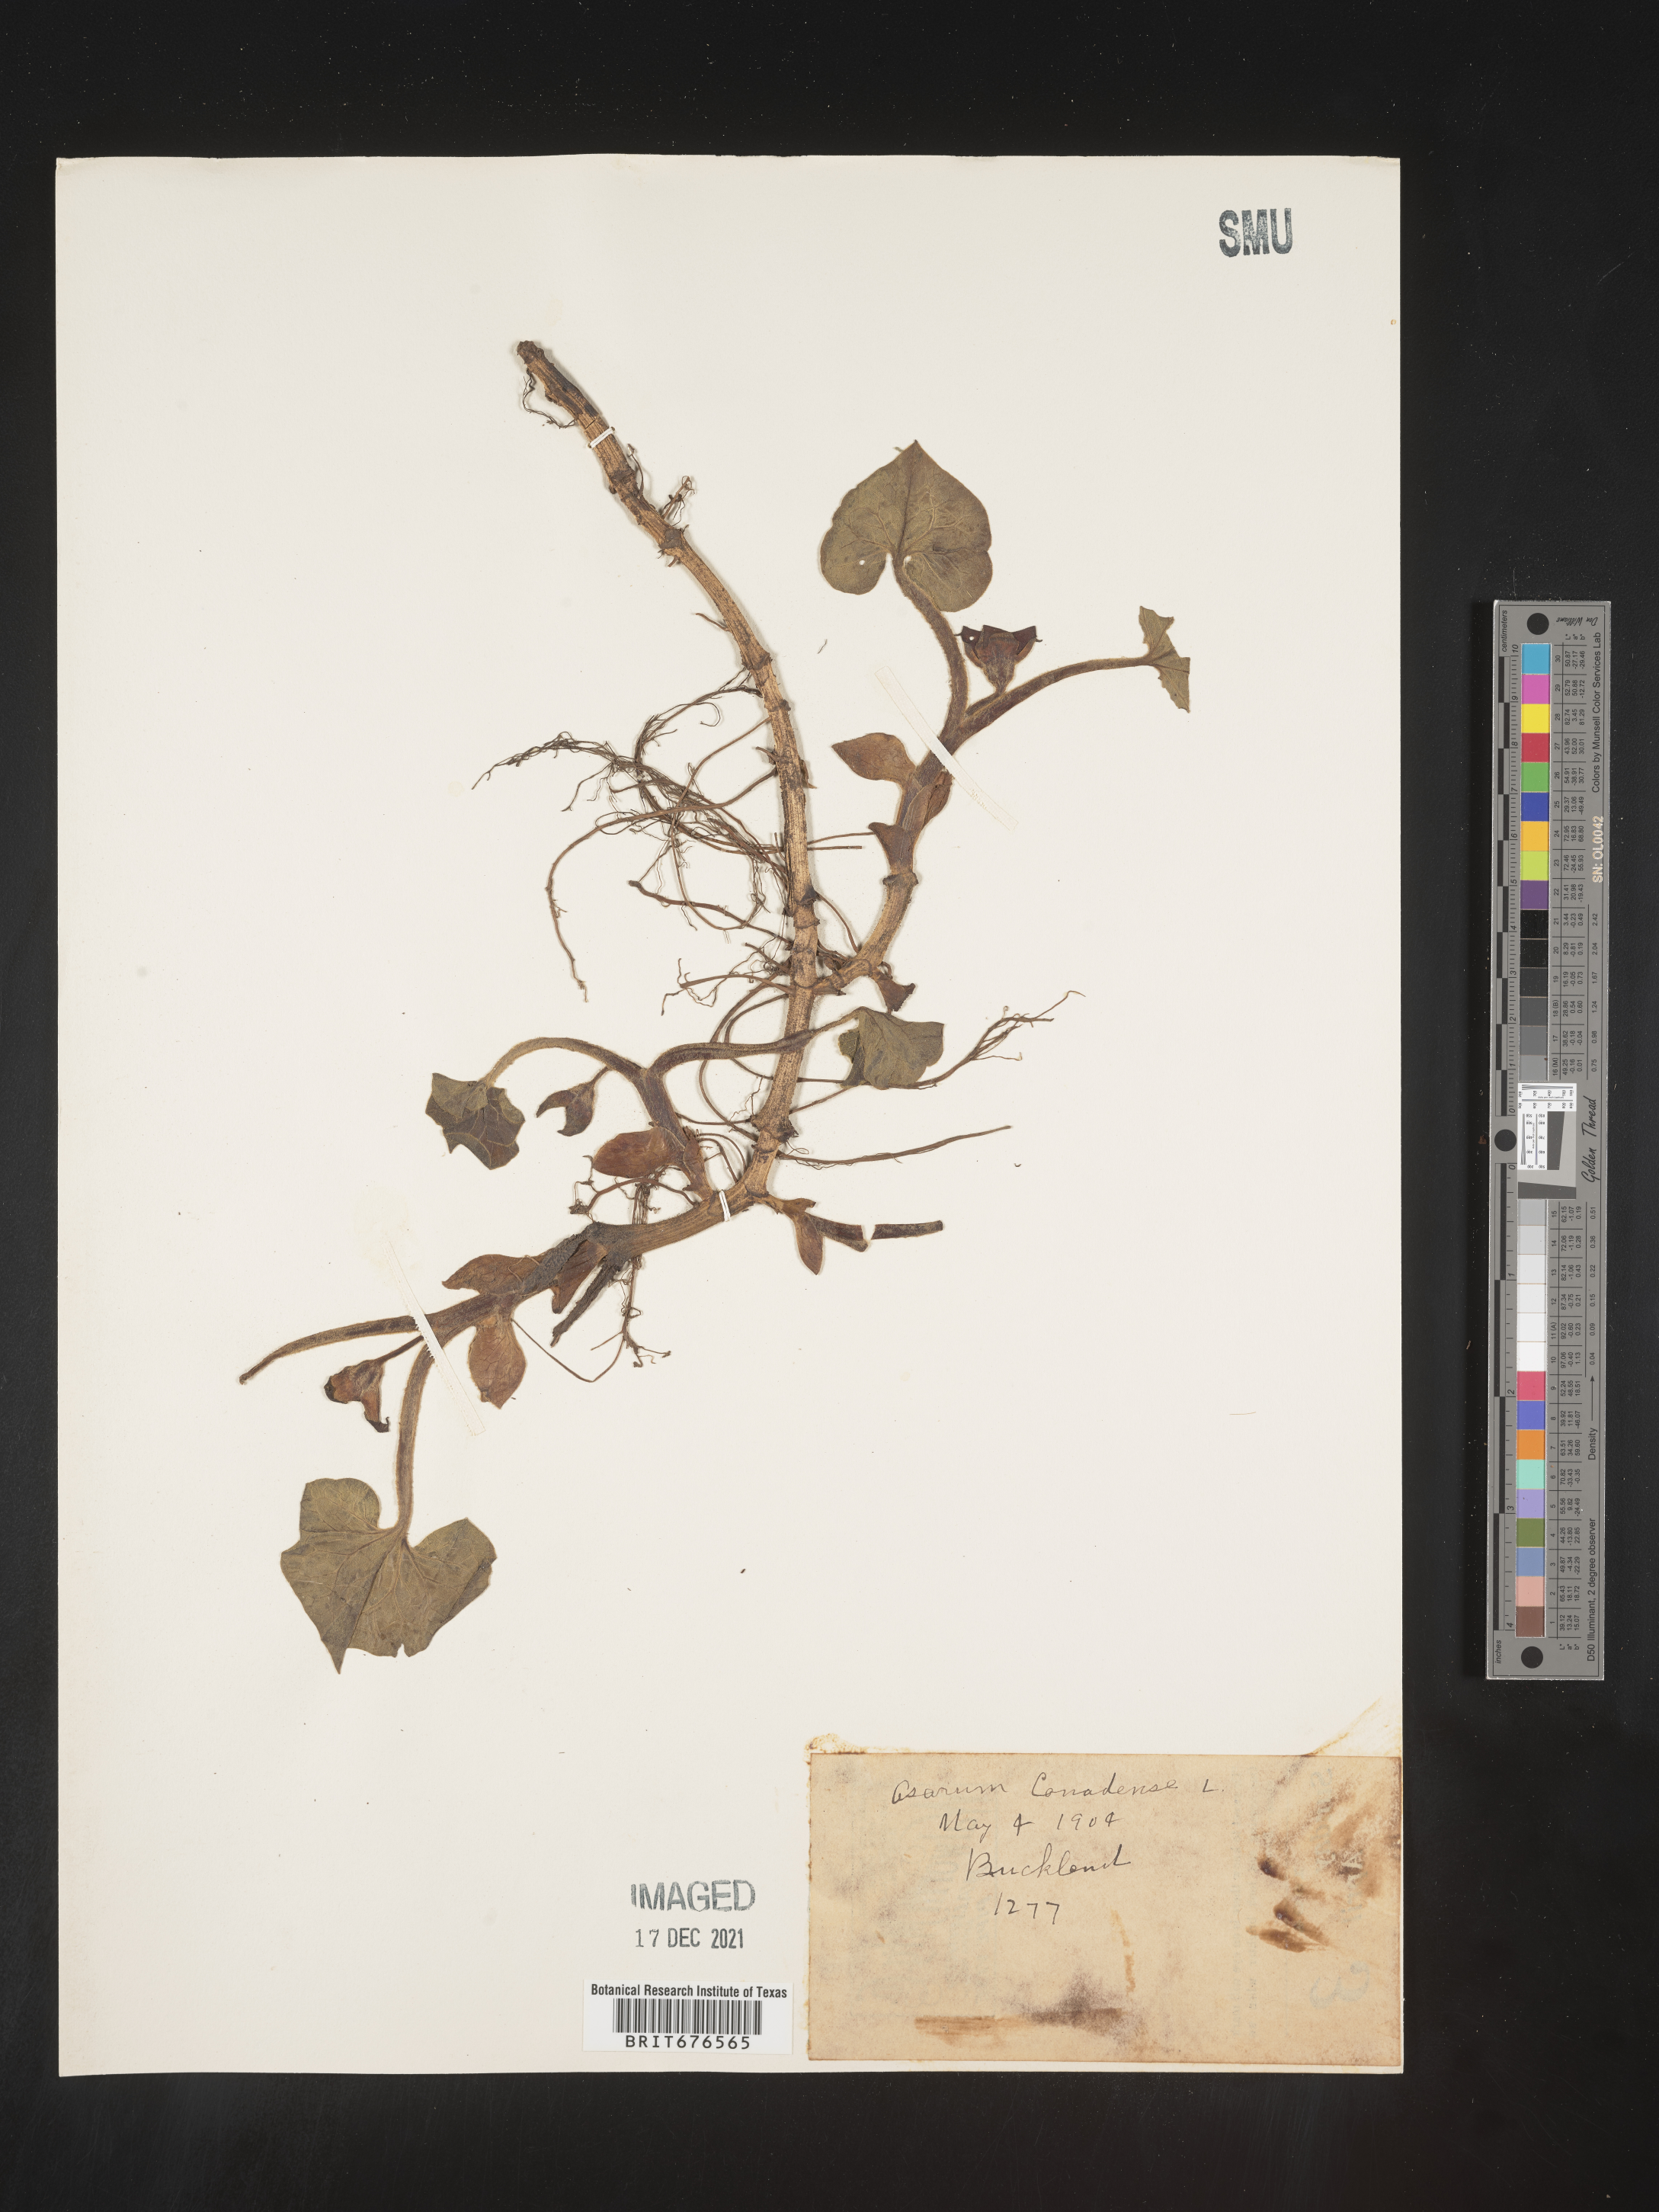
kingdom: Plantae
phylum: Tracheophyta
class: Magnoliopsida
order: Piperales
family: Aristolochiaceae
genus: Asarum
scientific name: Asarum canadense
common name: Wild ginger
